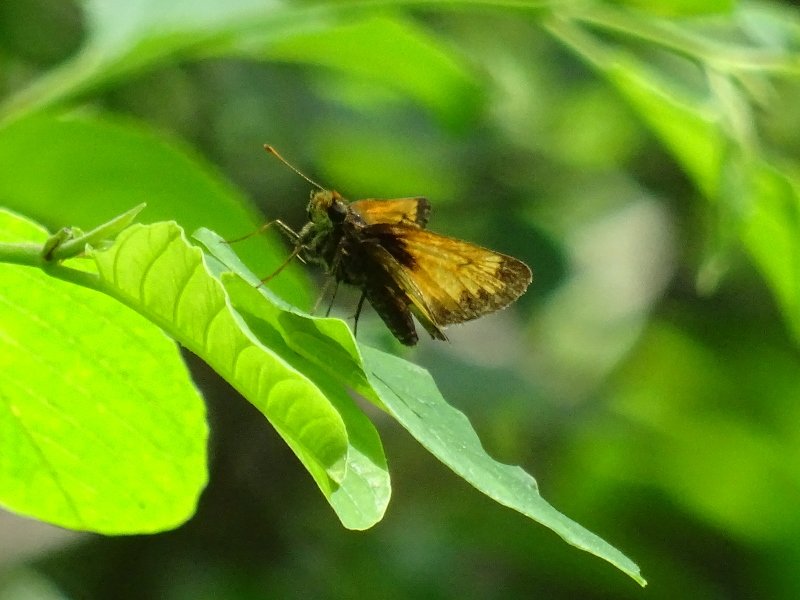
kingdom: Animalia
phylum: Arthropoda
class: Insecta
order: Lepidoptera
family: Hesperiidae
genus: Lon
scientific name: Lon hobomok
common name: Hobomok Skipper
